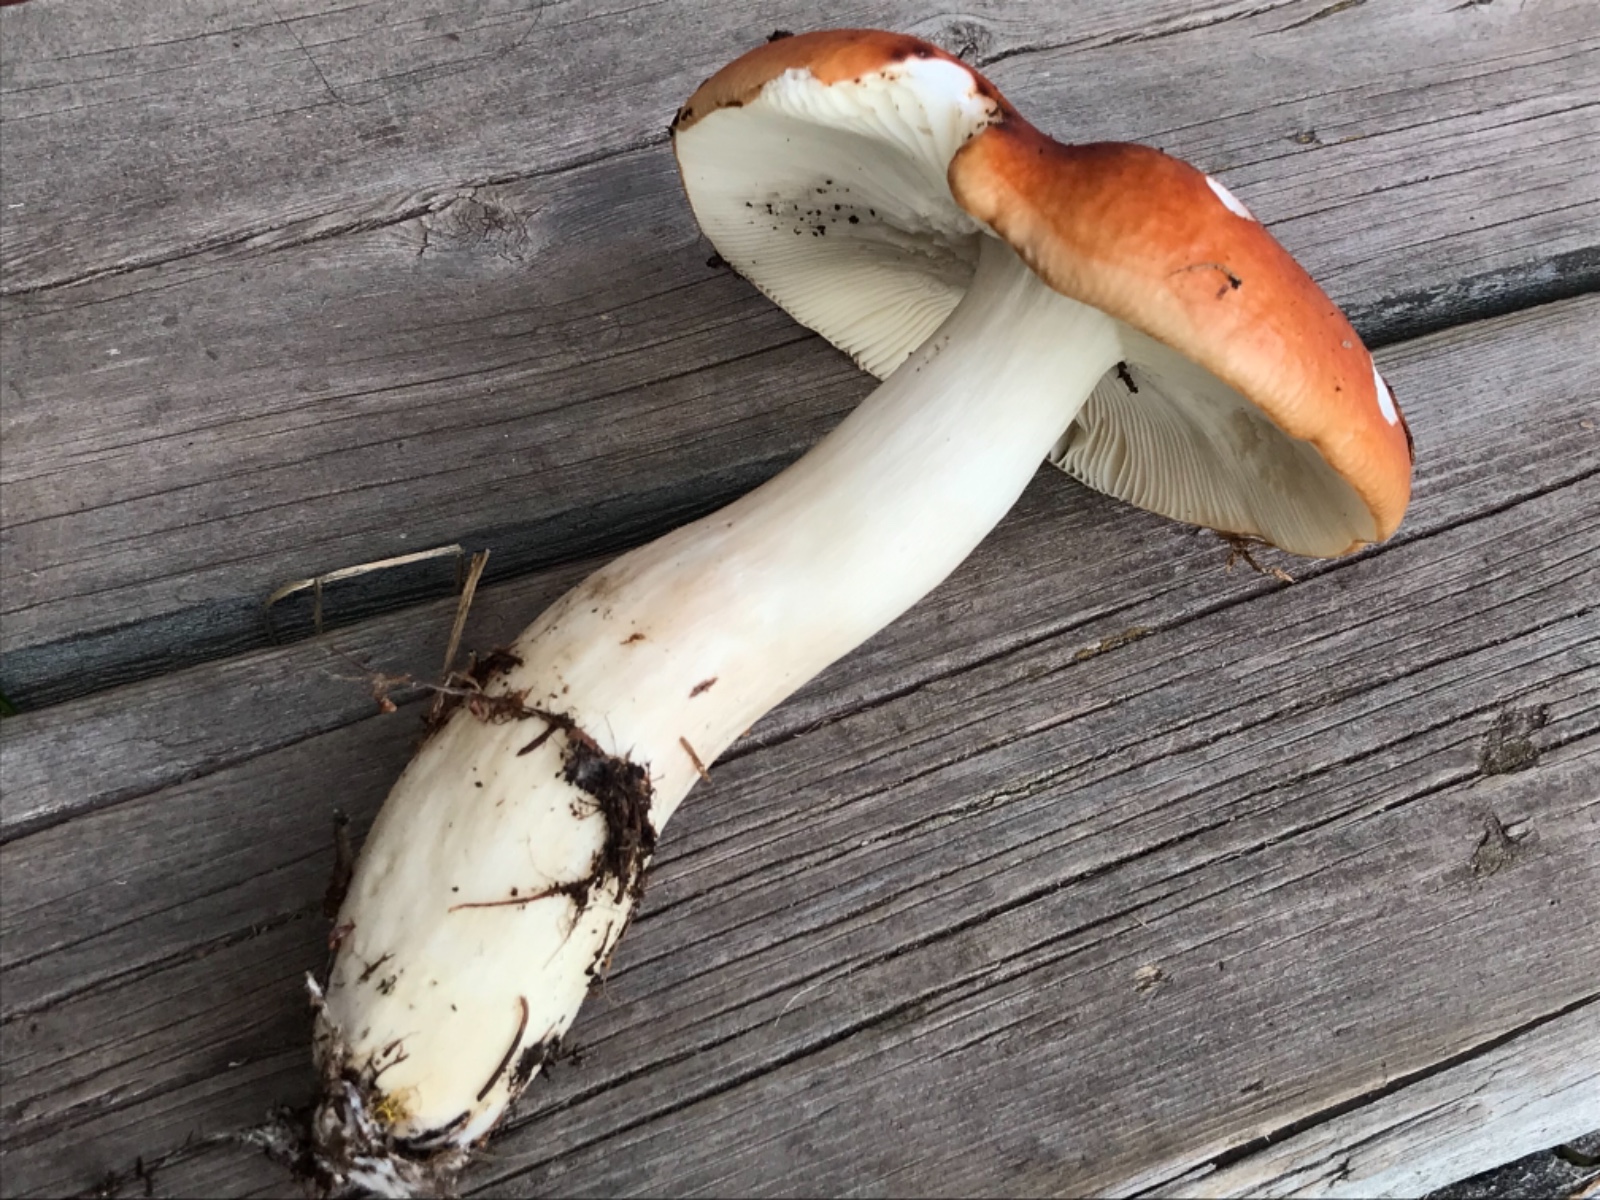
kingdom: Fungi
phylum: Basidiomycota
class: Agaricomycetes
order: Russulales
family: Russulaceae
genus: Russula
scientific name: Russula paludosa
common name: prægtig skørhat
